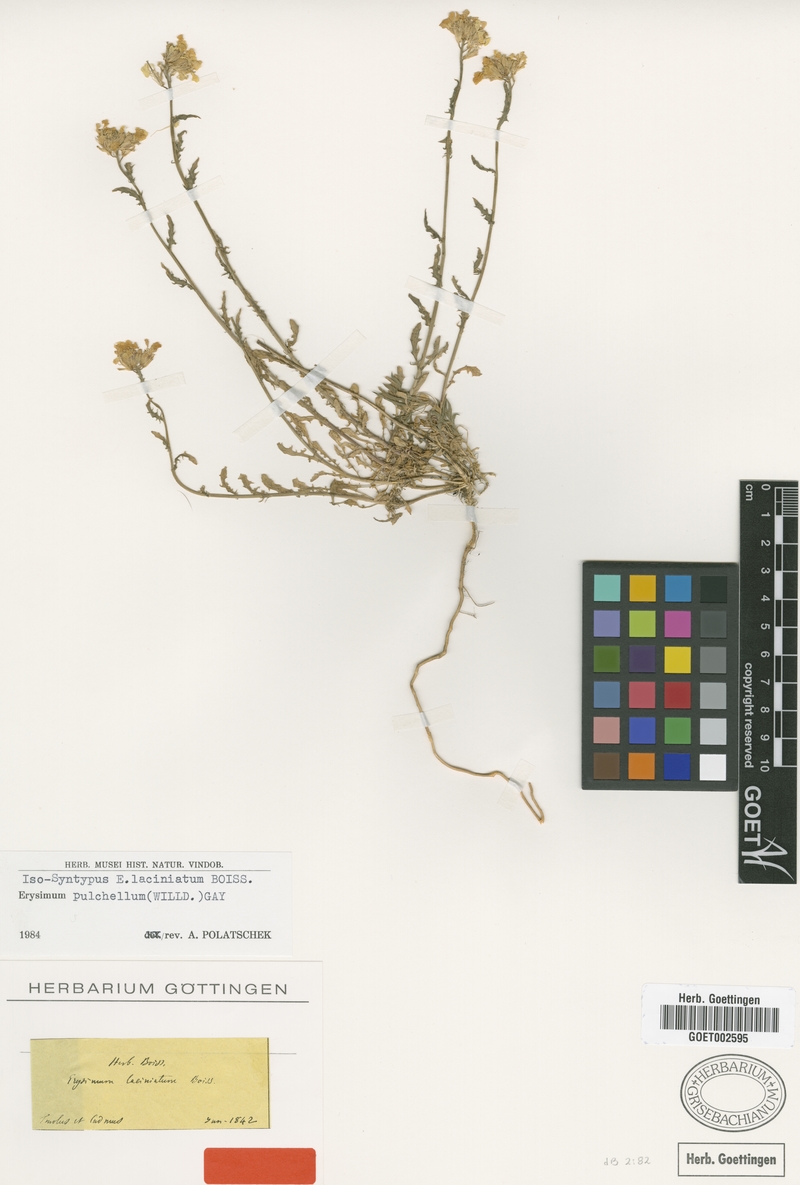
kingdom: Plantae
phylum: Tracheophyta
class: Magnoliopsida
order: Brassicales
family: Brassicaceae
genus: Erysimum
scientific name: Erysimum pulchellum
